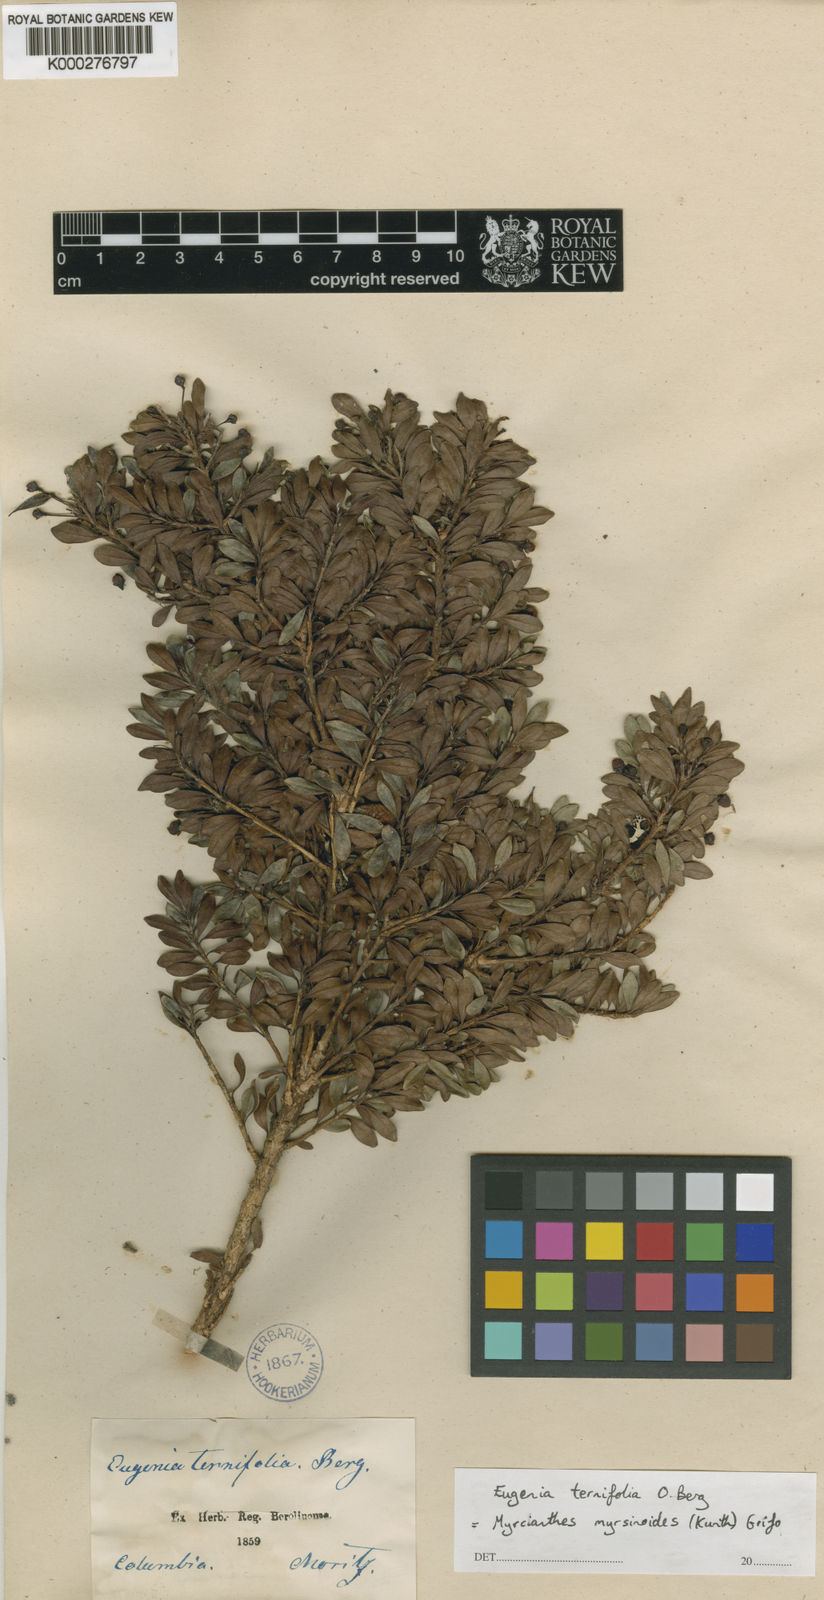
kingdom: Plantae
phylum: Tracheophyta
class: Magnoliopsida
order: Myrtales
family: Myrtaceae
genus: Myrcianthes
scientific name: Myrcianthes myrsinoides
